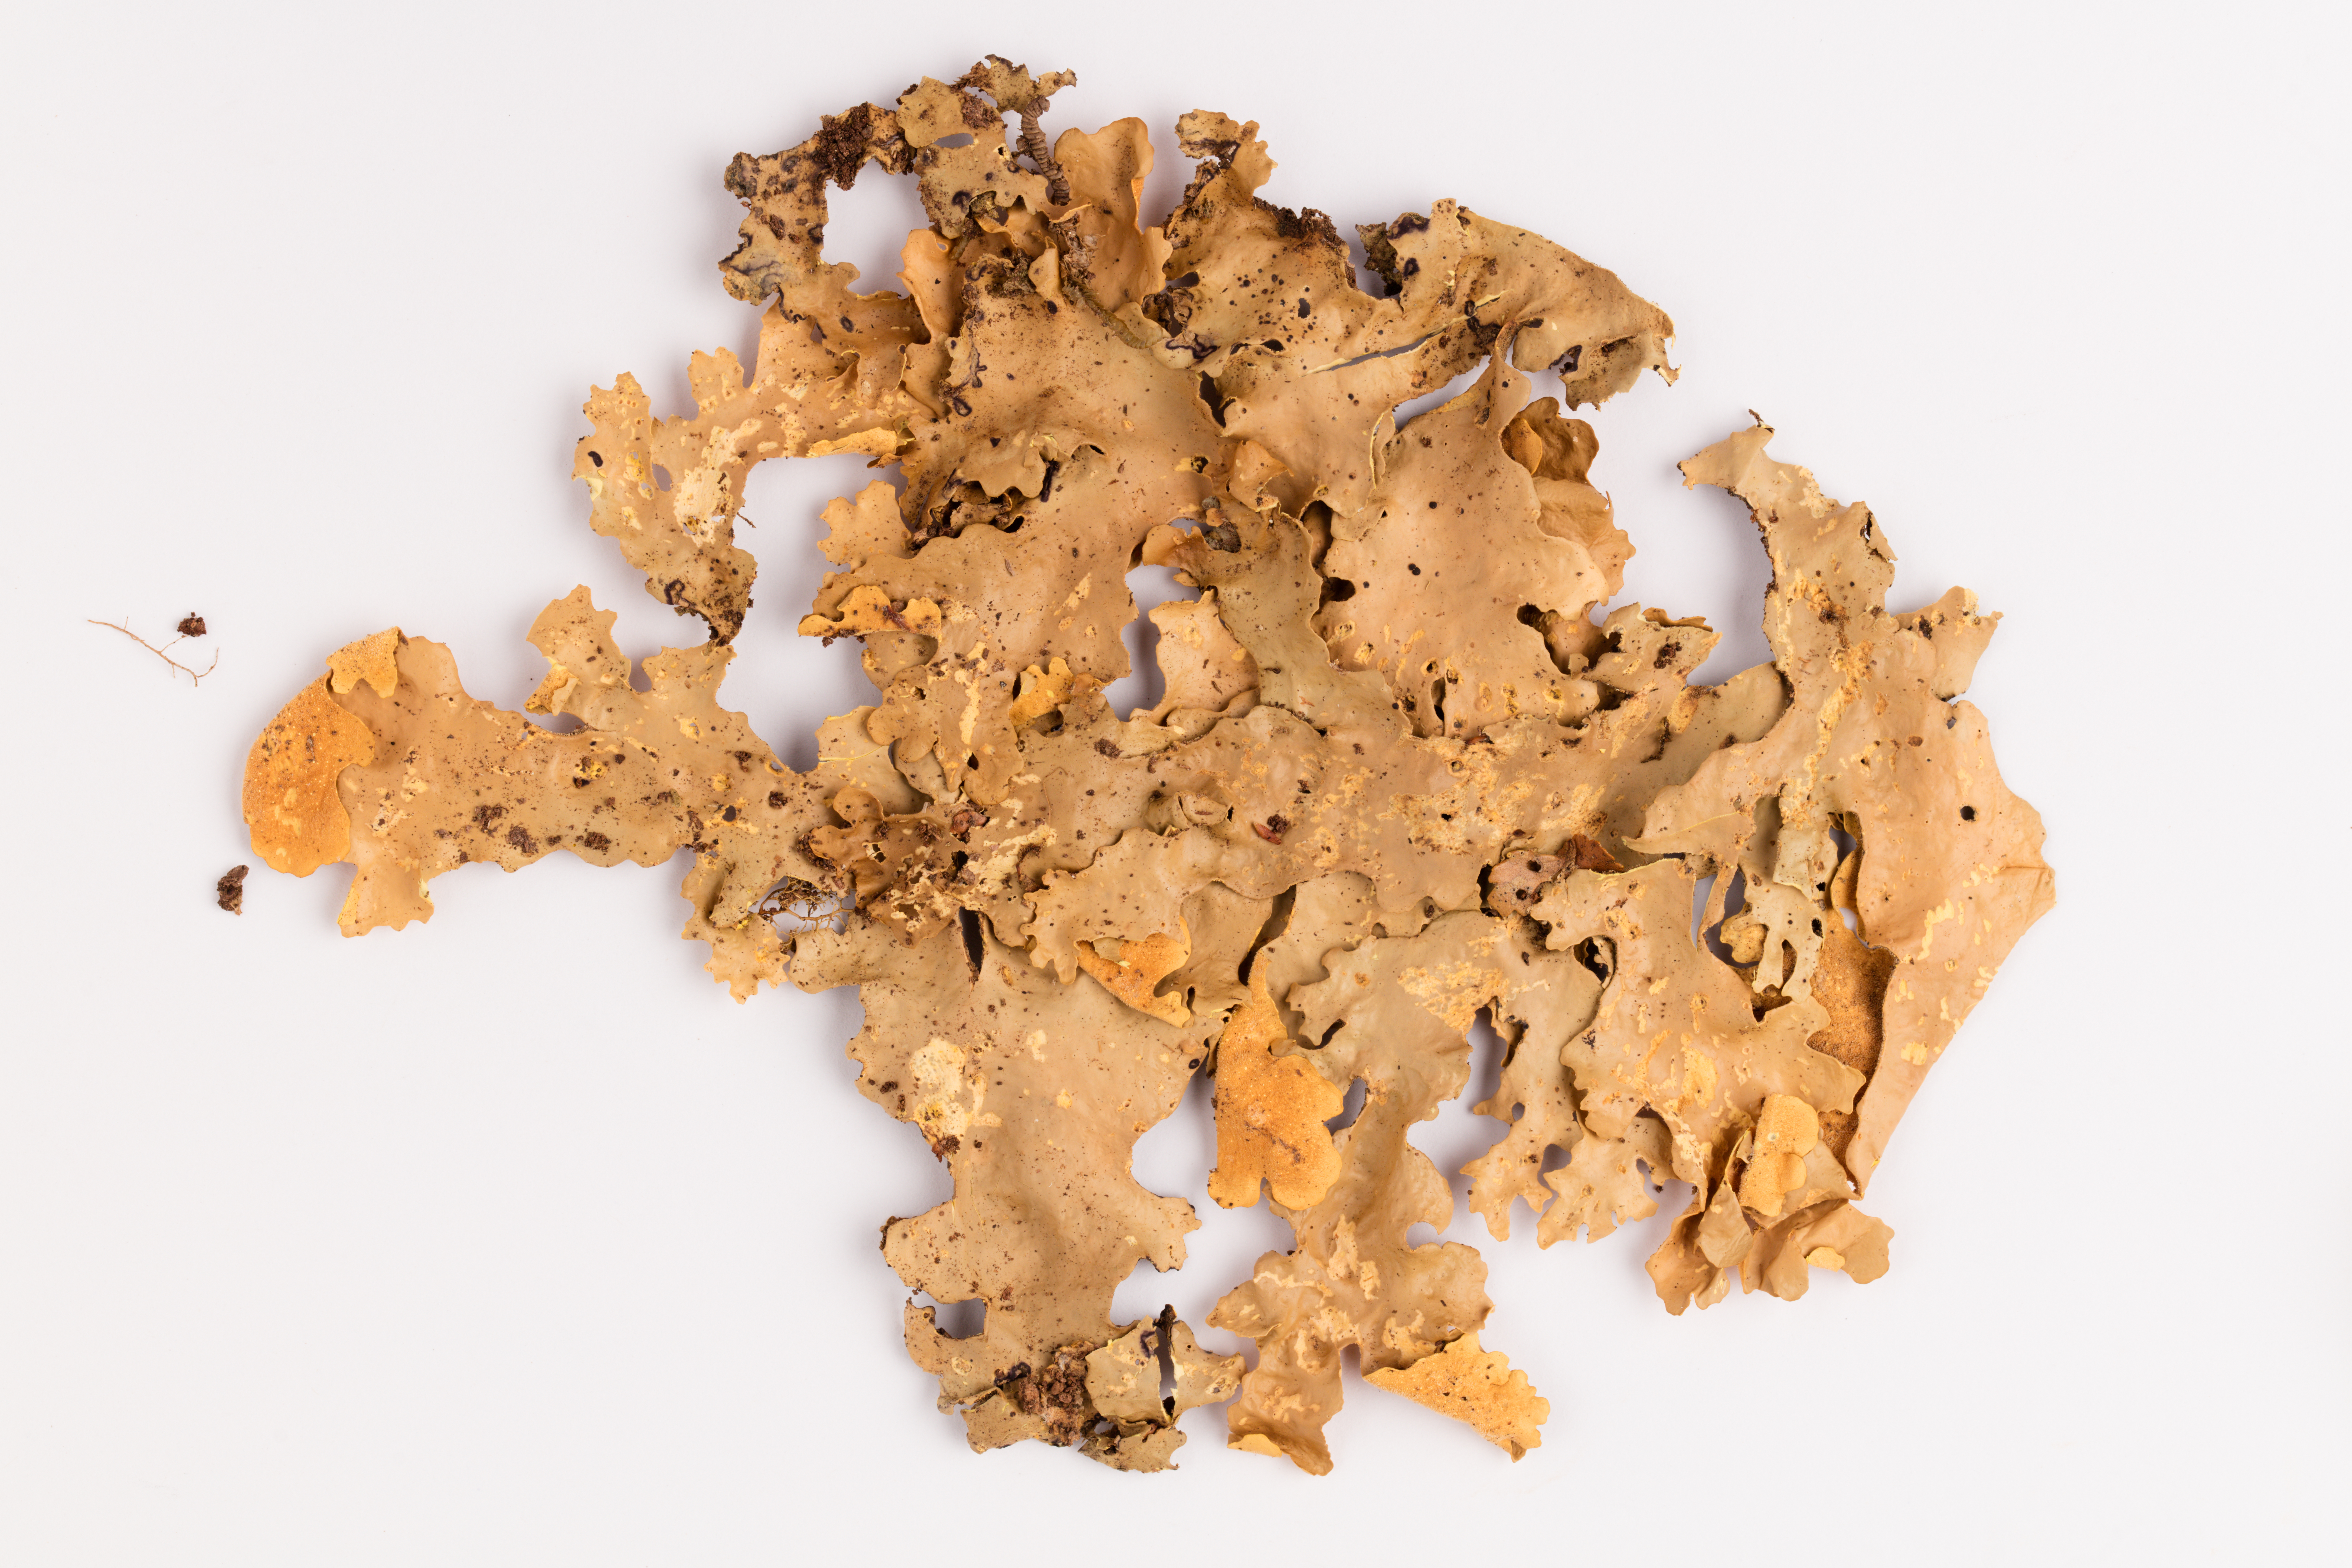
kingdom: Fungi
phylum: Ascomycota
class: Lecanoromycetes
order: Peltigerales
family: Lobariaceae
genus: Podostictina
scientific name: Podostictina degelii
